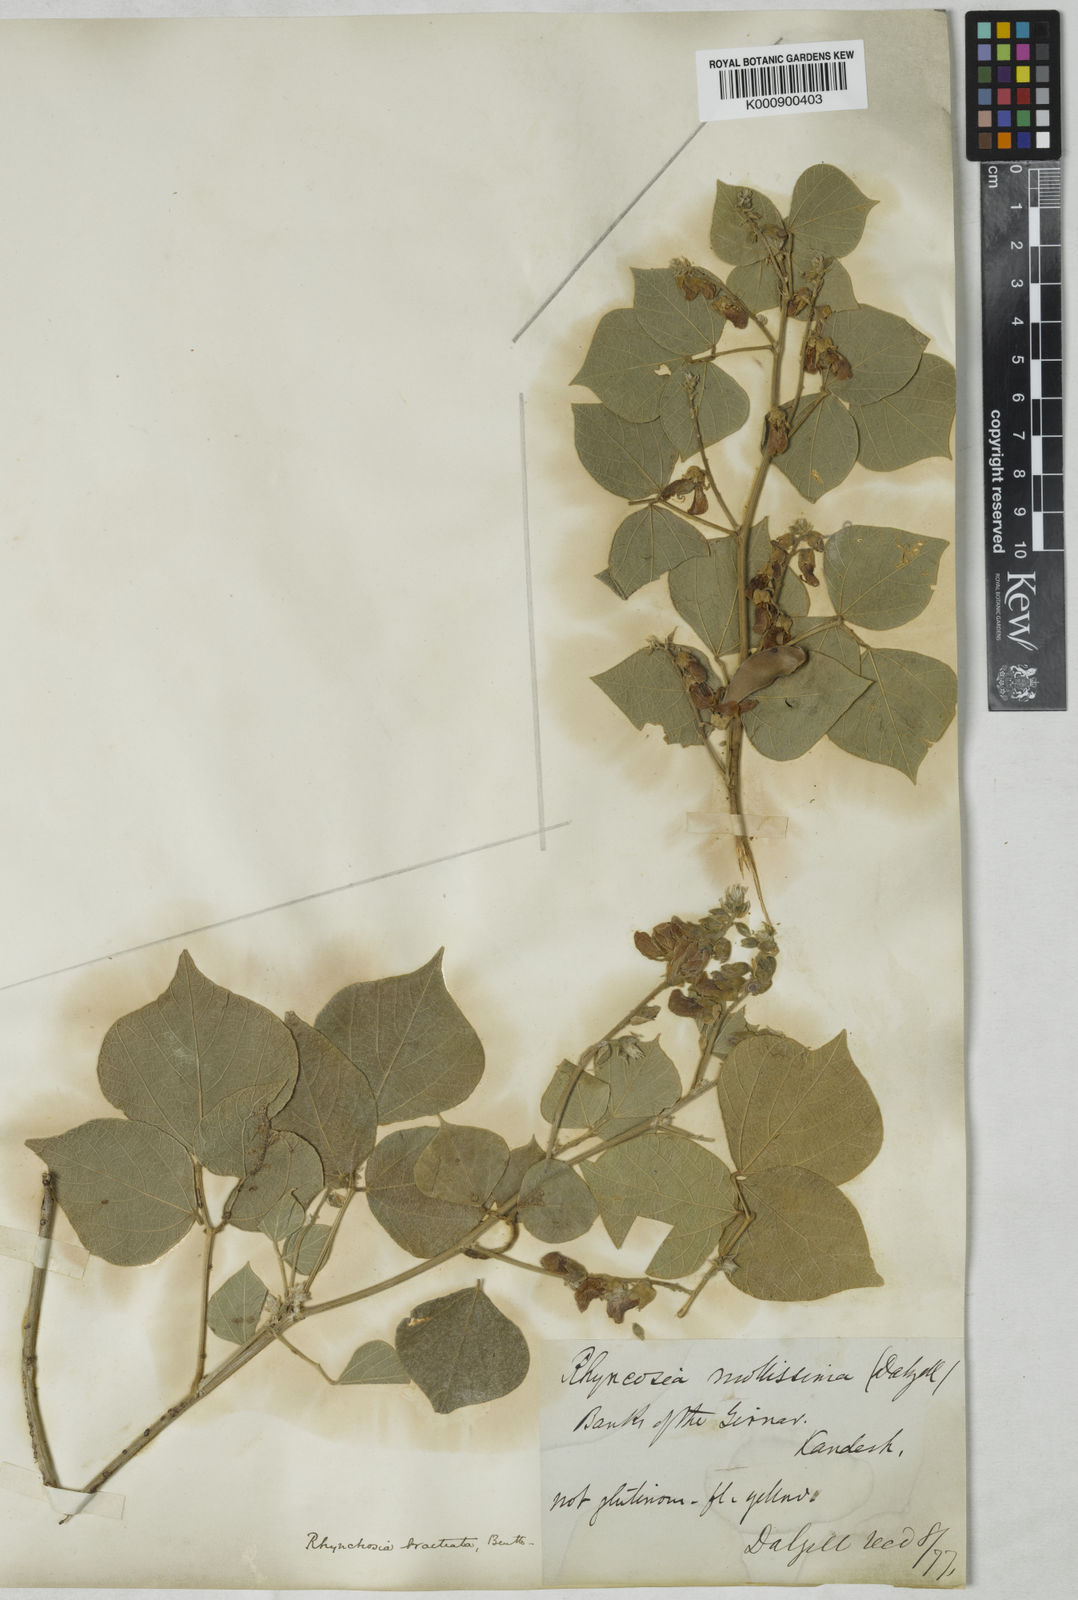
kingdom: Plantae
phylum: Tracheophyta
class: Magnoliopsida
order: Fabales
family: Fabaceae
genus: Rhynchosia
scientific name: Rhynchosia bracteata
